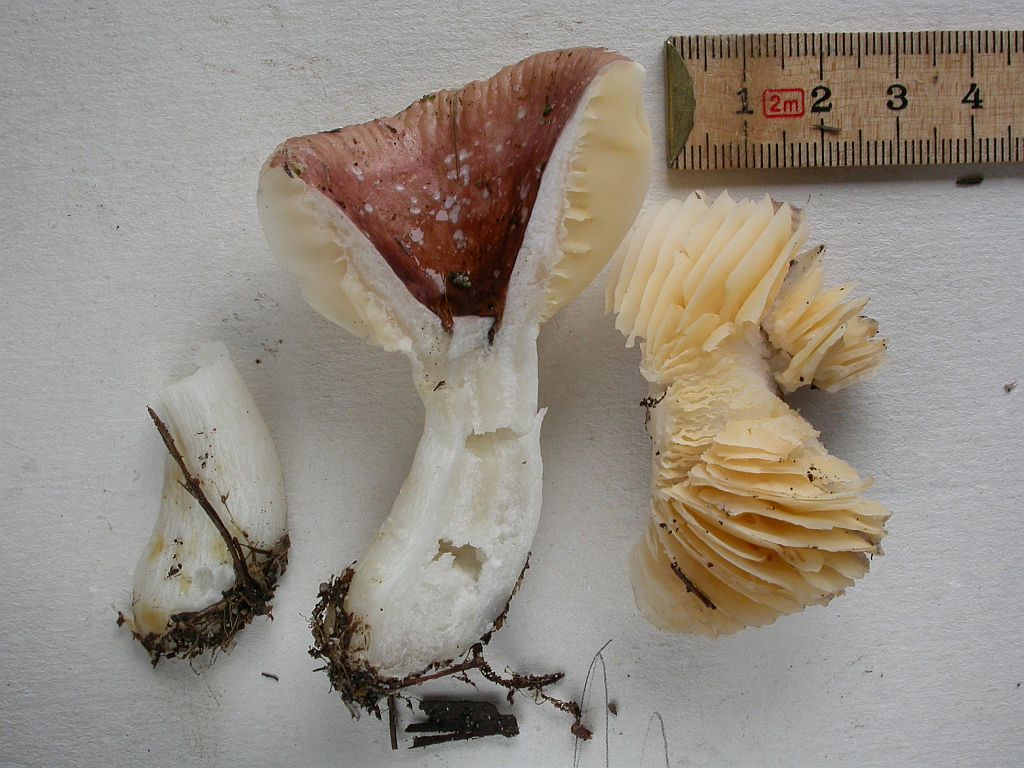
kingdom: Fungi
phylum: Basidiomycota
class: Agaricomycetes
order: Russulales
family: Russulaceae
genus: Russula
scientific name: Russula cessans
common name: fyrre-skørhat
